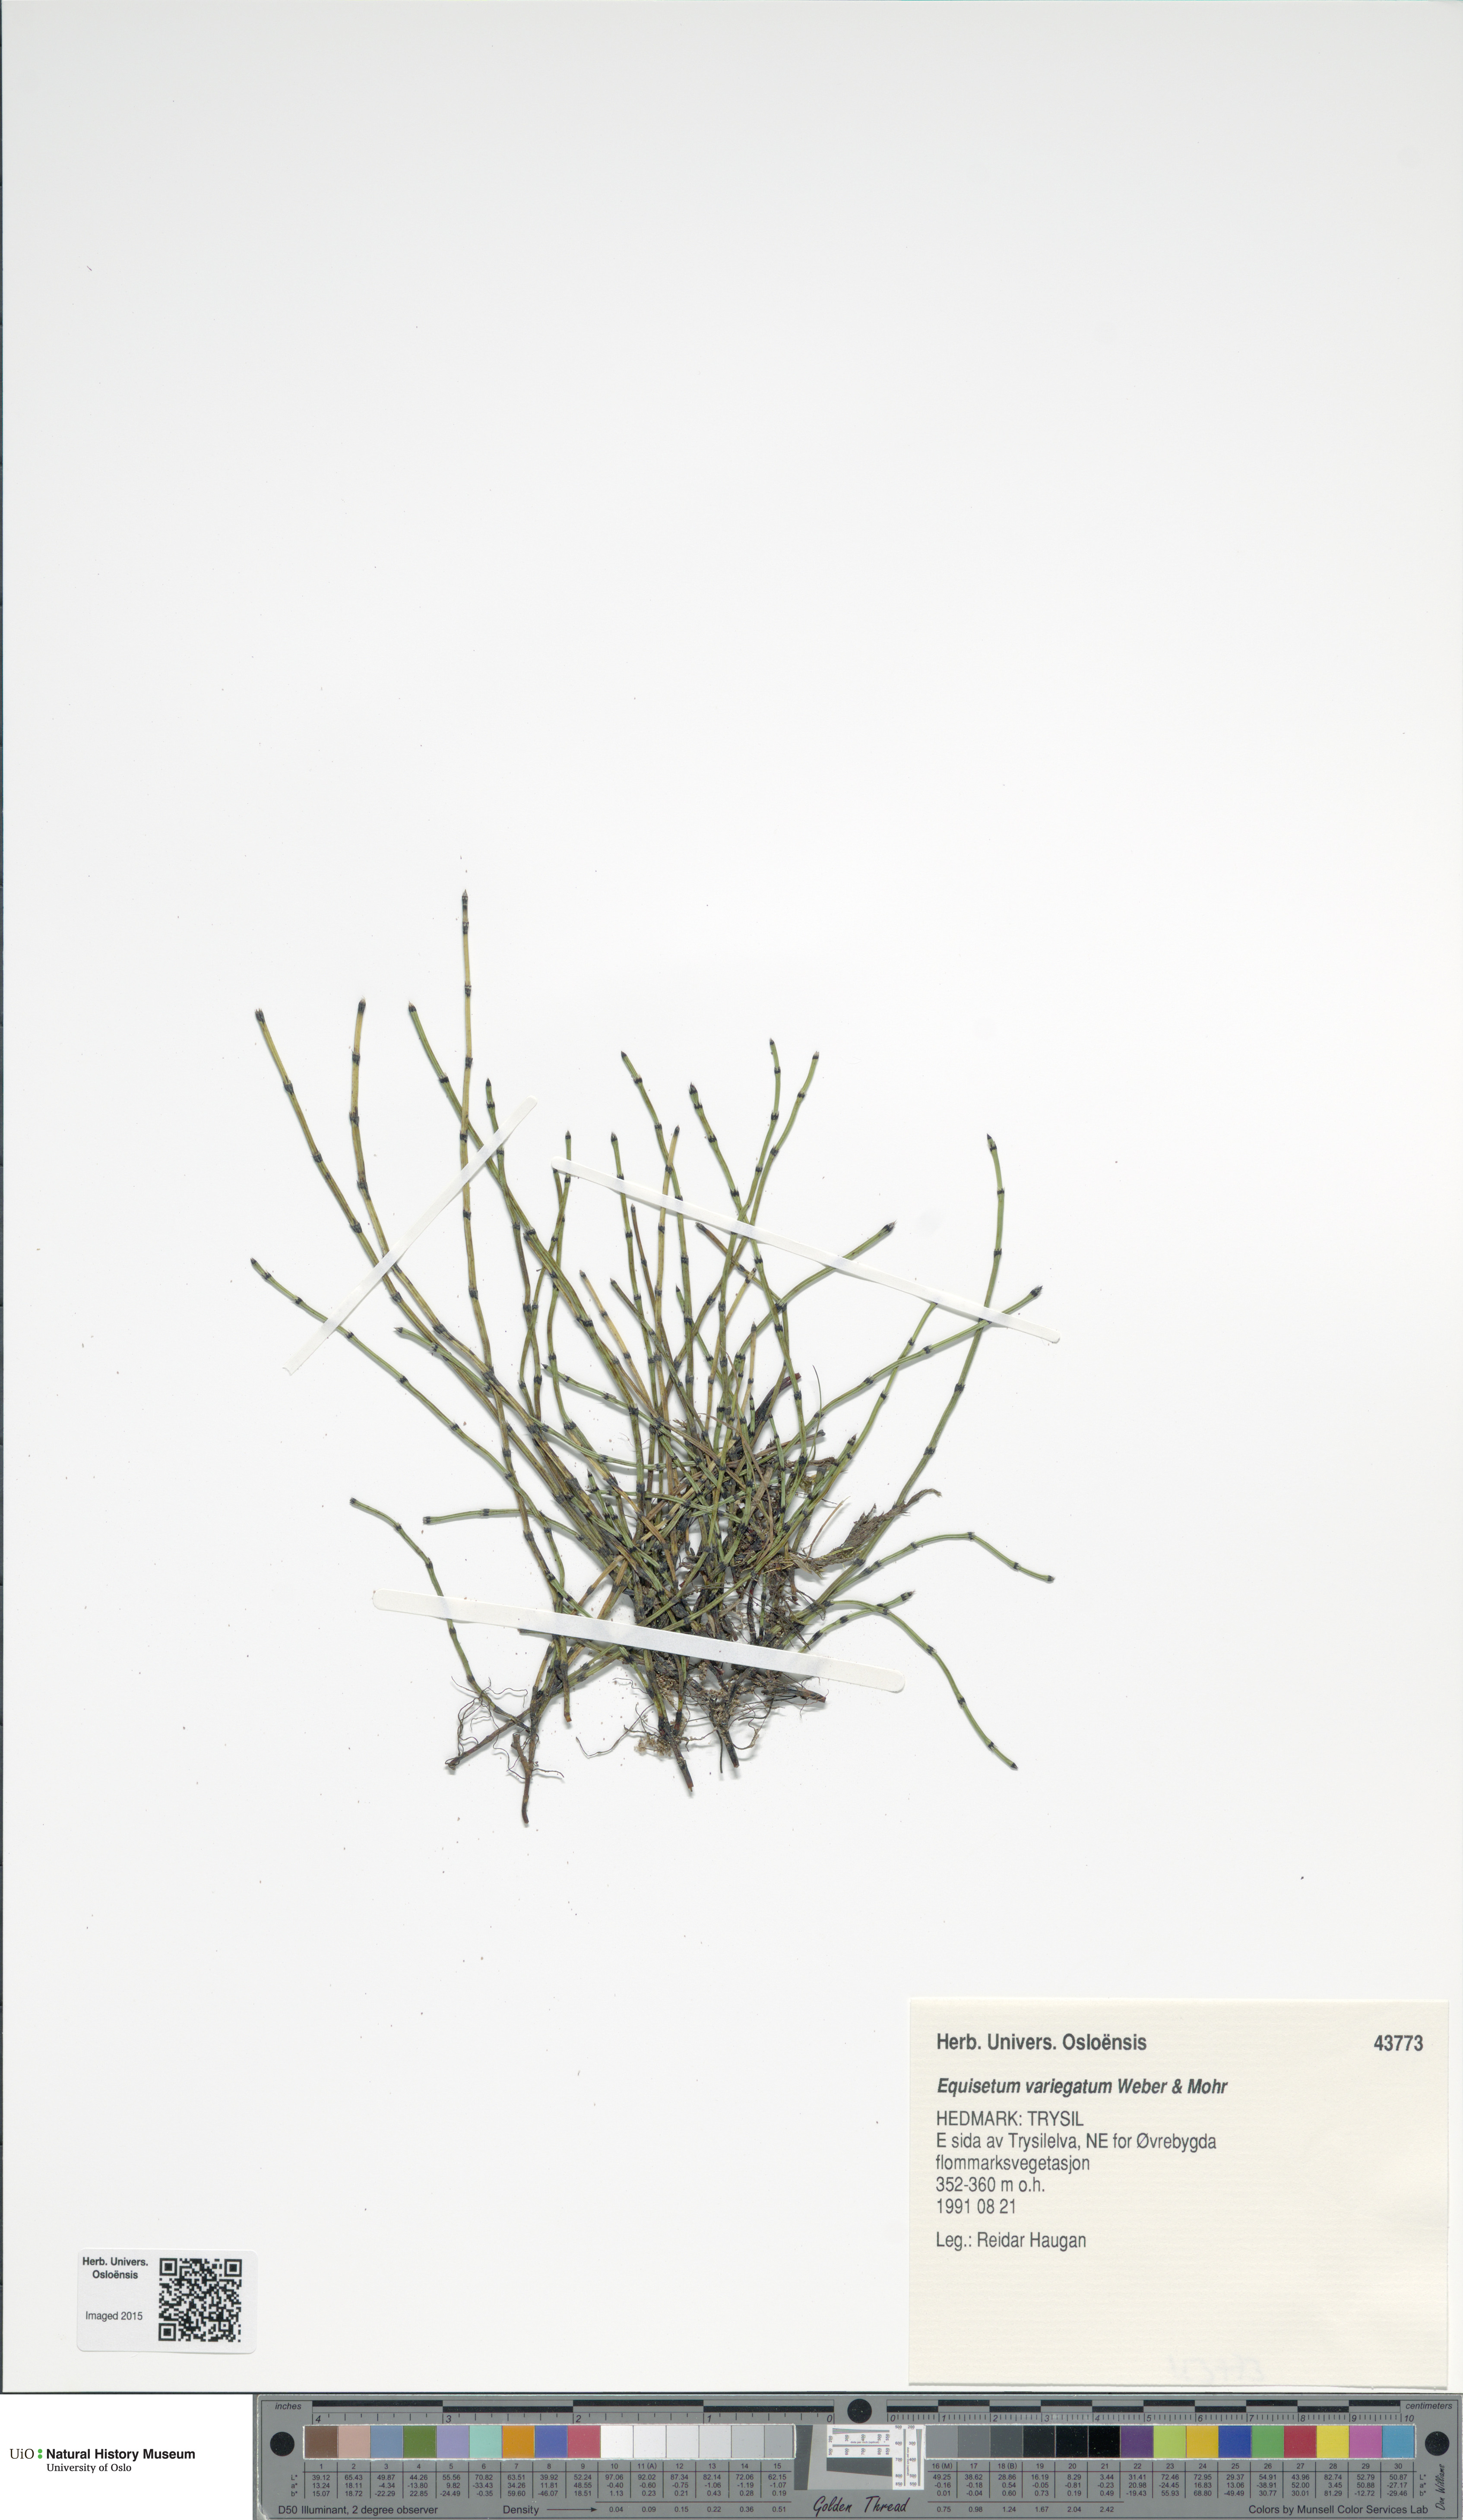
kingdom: Plantae
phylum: Tracheophyta
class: Polypodiopsida
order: Equisetales
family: Equisetaceae
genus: Equisetum
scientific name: Equisetum variegatum
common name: Variegated horsetail
